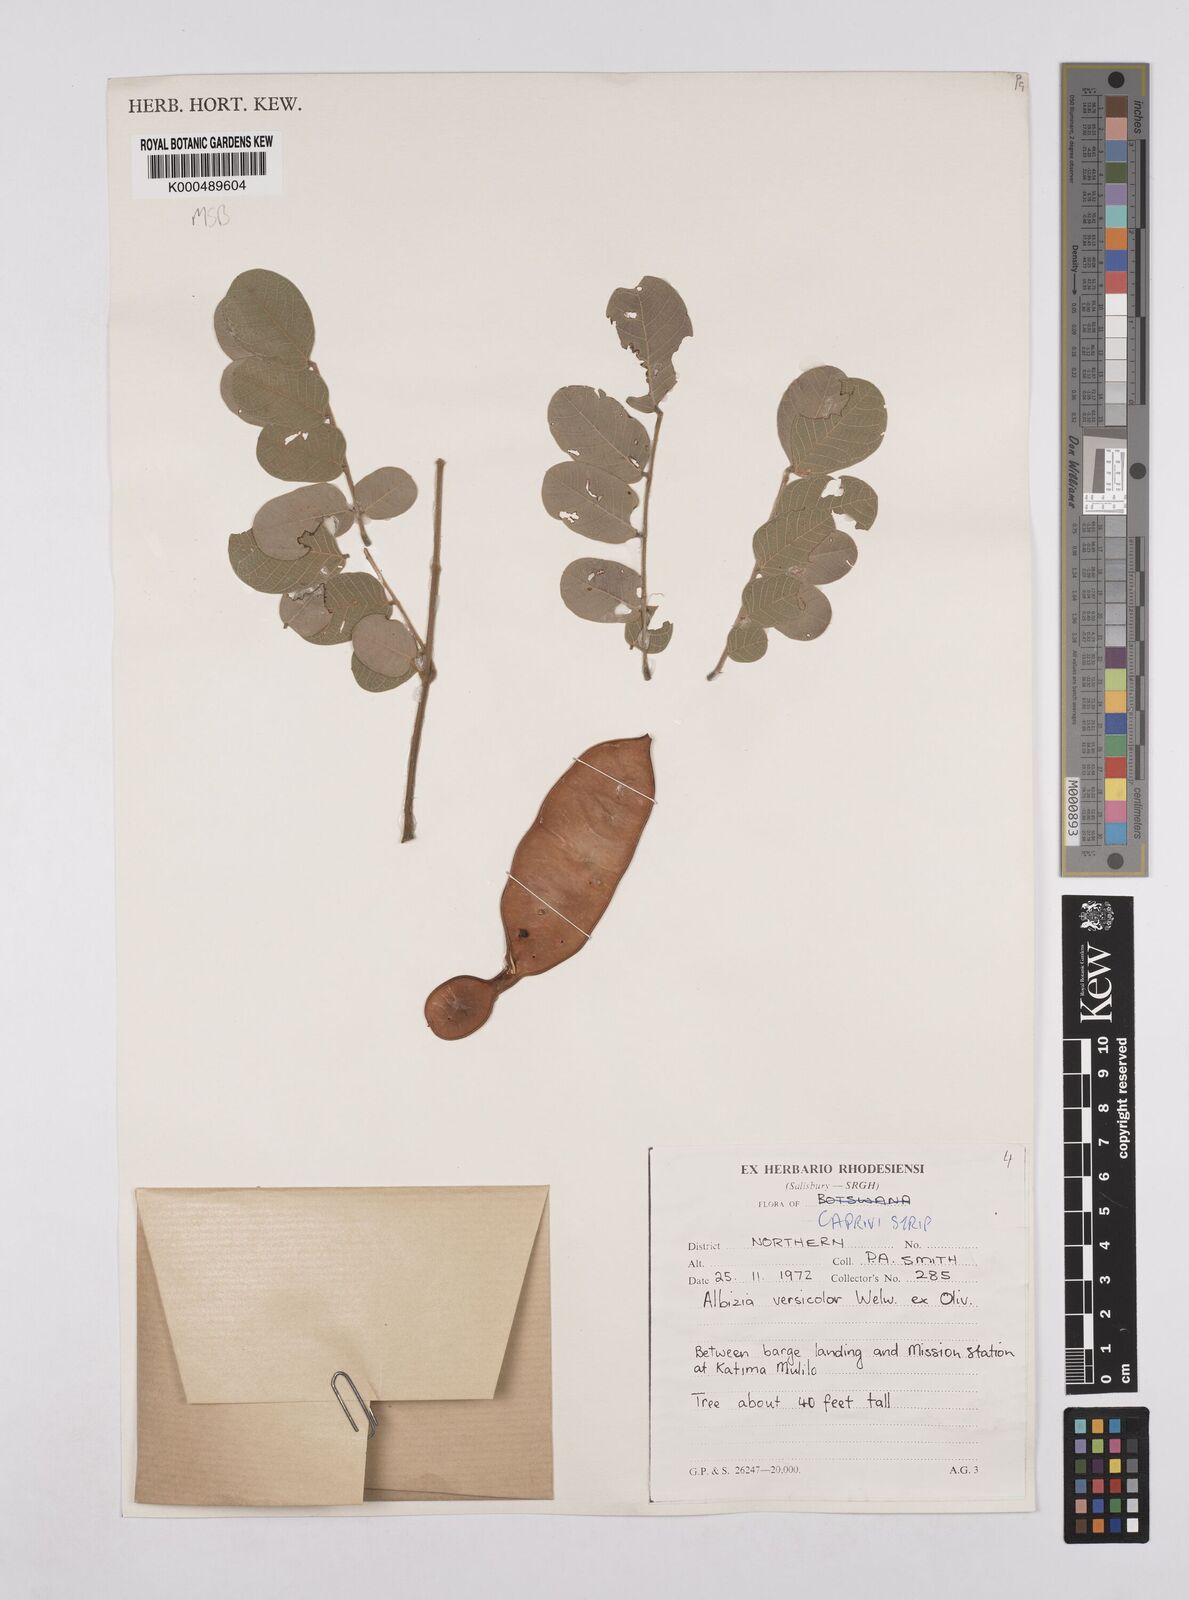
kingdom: Plantae
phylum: Tracheophyta
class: Magnoliopsida
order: Fabales
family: Fabaceae
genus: Albizia
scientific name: Albizia versicolor
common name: Poisonpod
